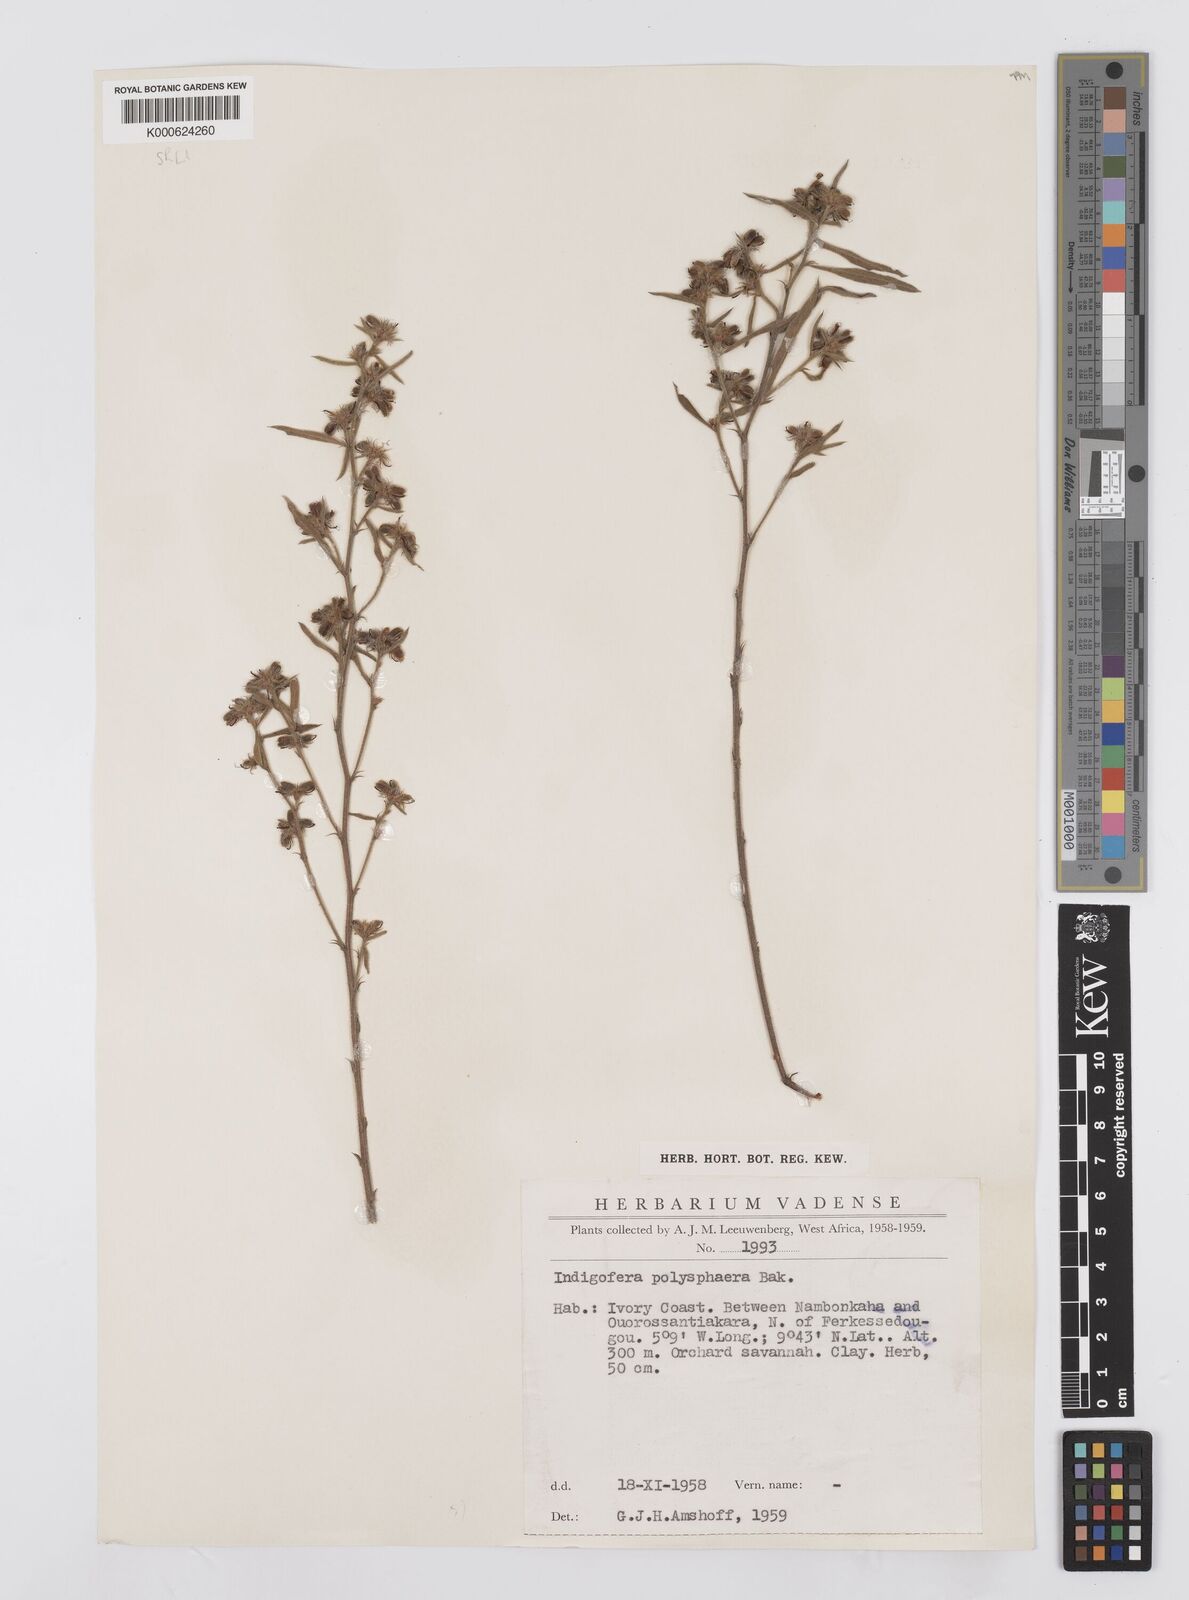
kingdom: Plantae
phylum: Tracheophyta
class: Magnoliopsida
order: Fabales
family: Fabaceae
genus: Indigofera
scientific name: Indigofera polysphaera
